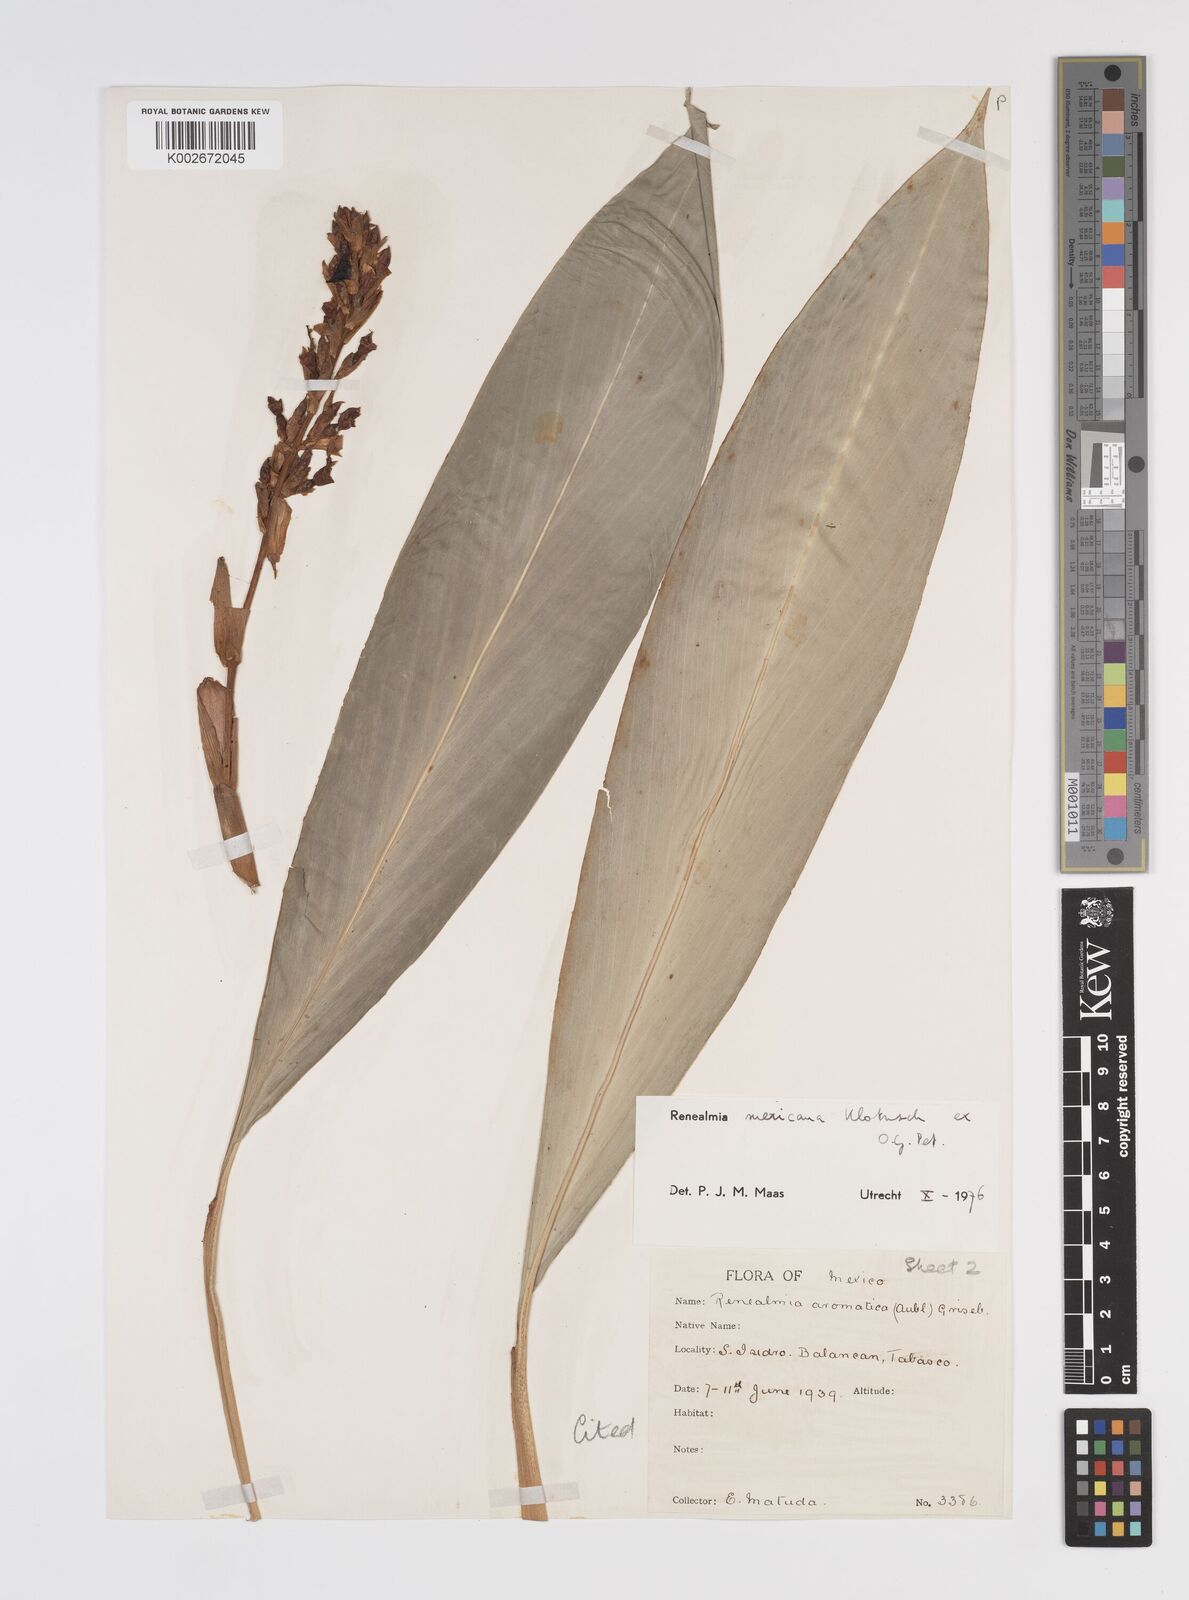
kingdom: Plantae
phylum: Tracheophyta
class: Liliopsida
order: Zingiberales
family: Zingiberaceae
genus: Renealmia
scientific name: Renealmia mexicana
